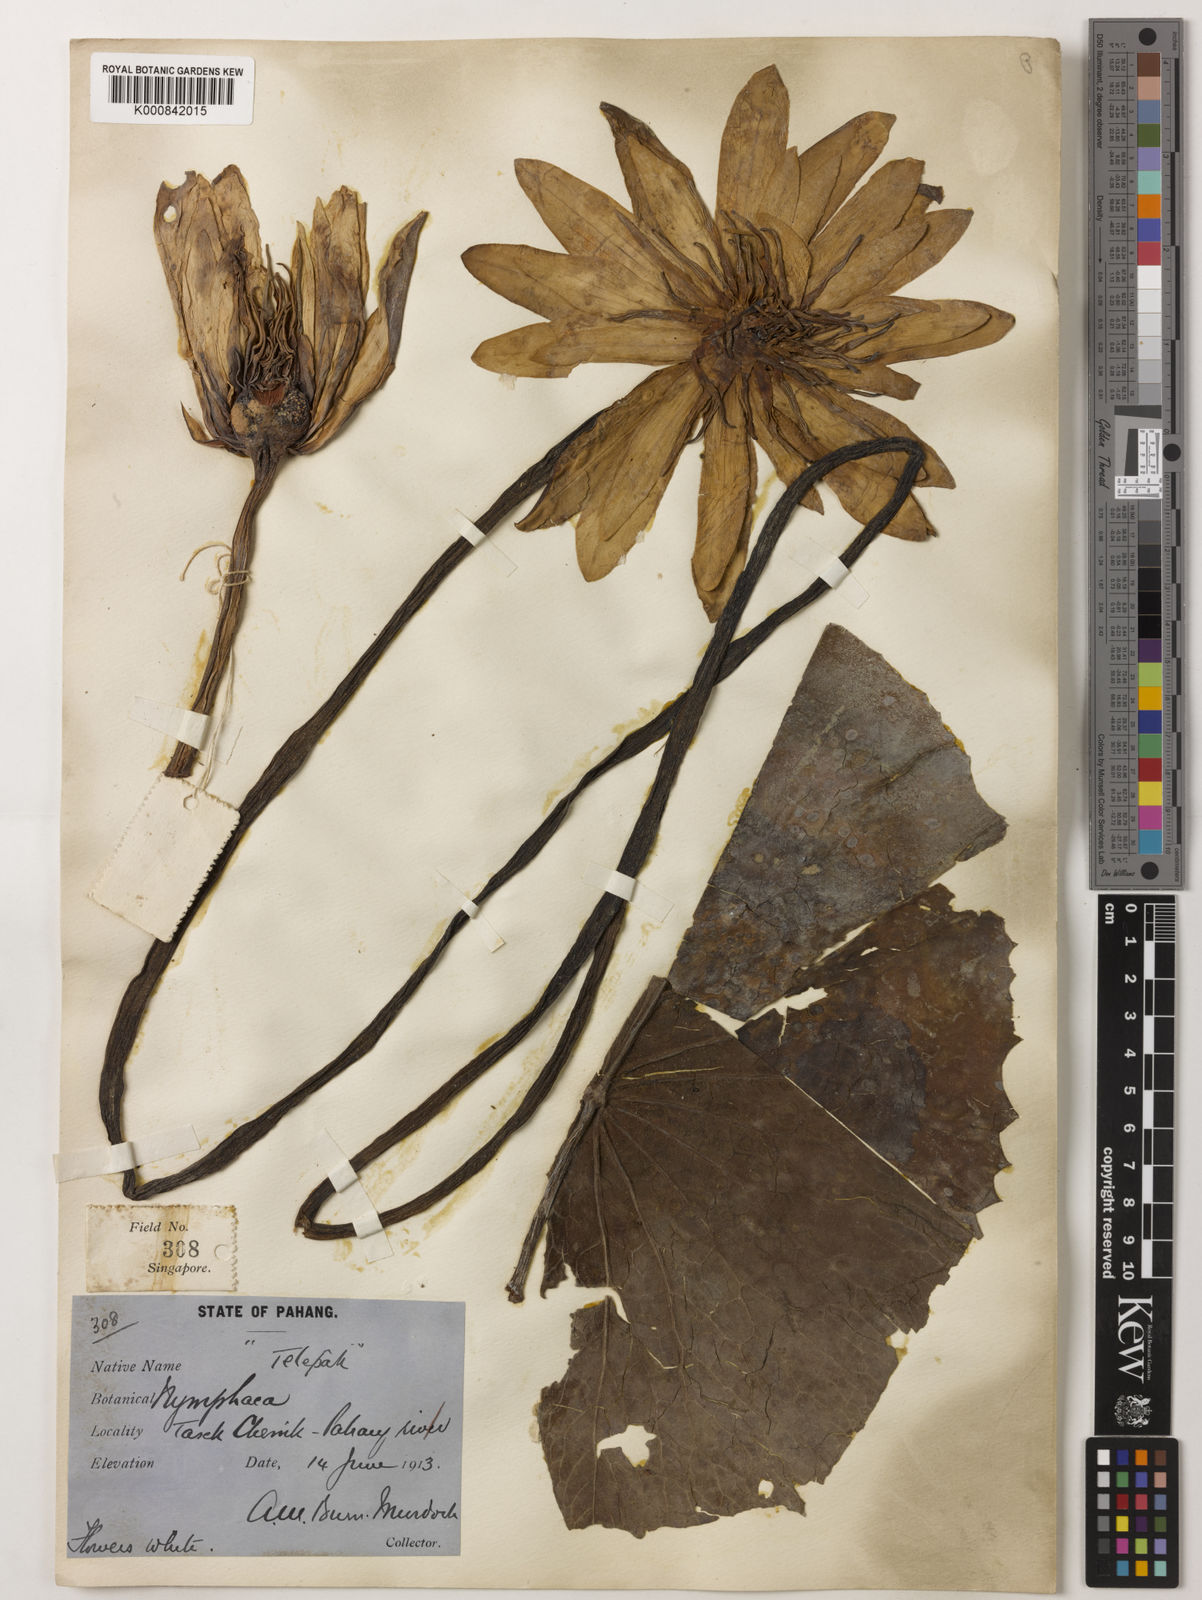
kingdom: Plantae
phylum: Tracheophyta
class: Magnoliopsida
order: Nymphaeales
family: Nymphaeaceae
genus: Nymphaea
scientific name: Nymphaea pubescens
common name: Hairy water lily
